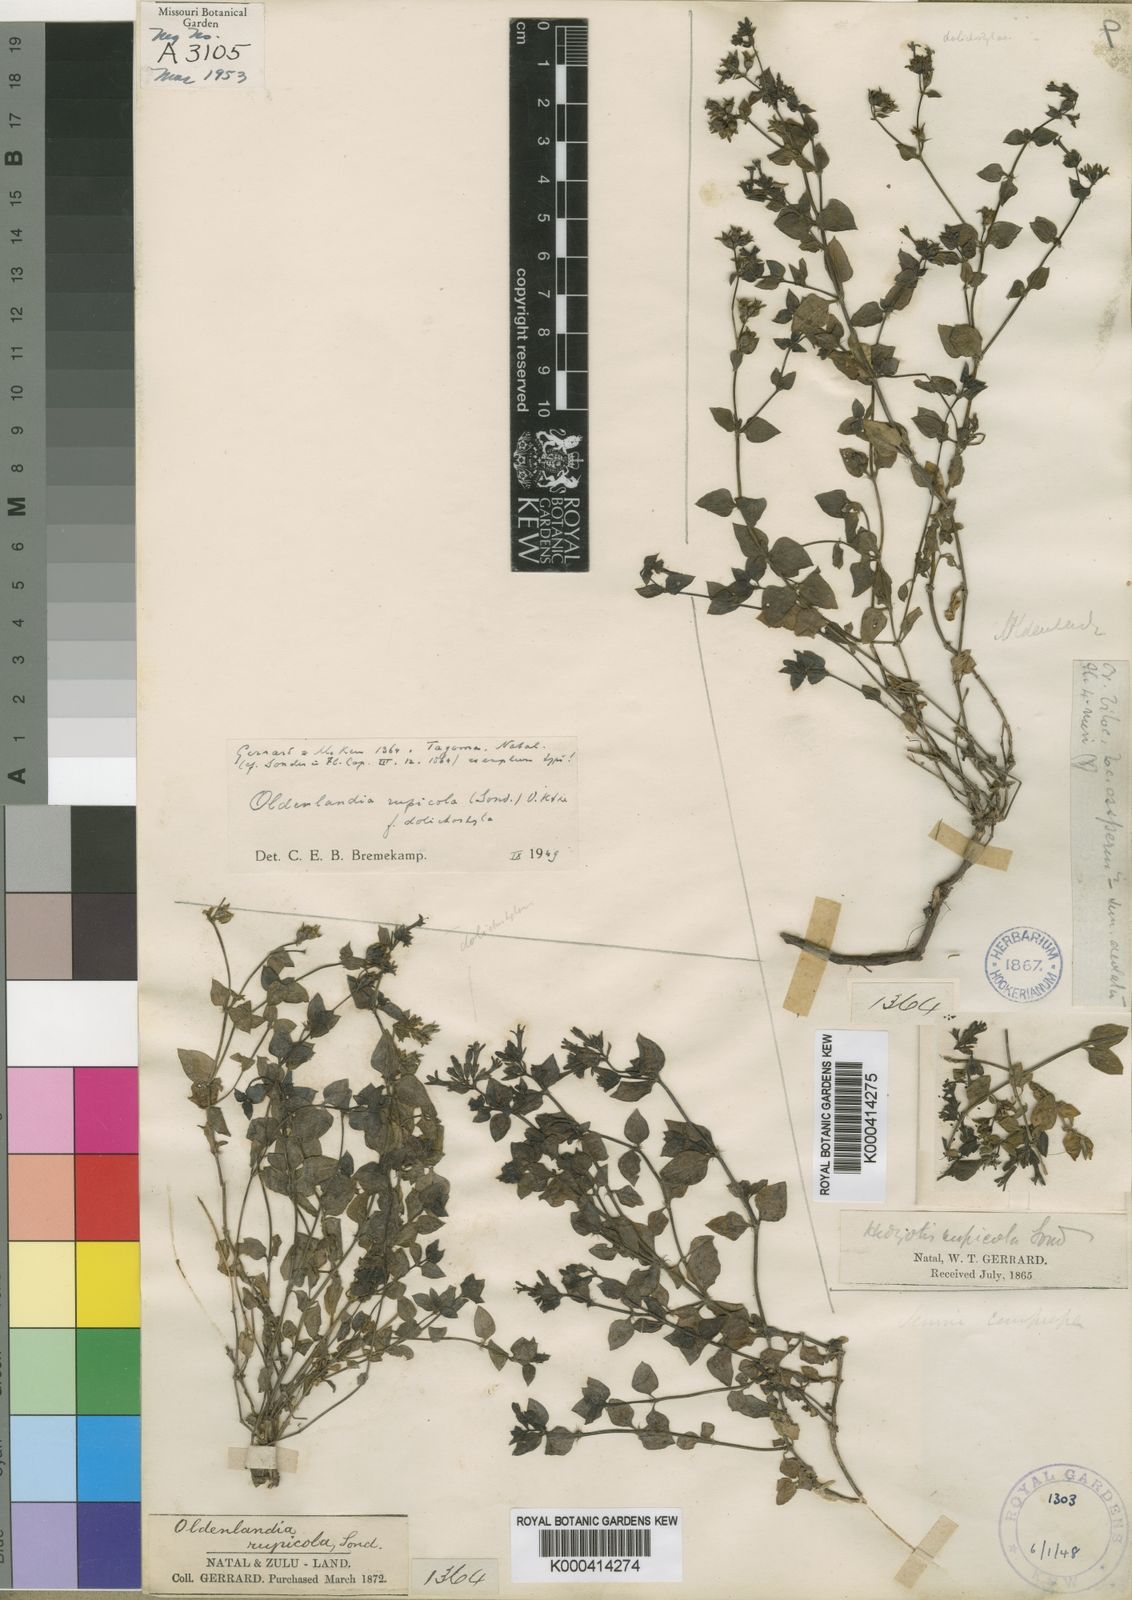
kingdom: Plantae
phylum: Tracheophyta
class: Magnoliopsida
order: Gentianales
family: Rubiaceae
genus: Oldenlandia
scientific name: Oldenlandia rupicola
